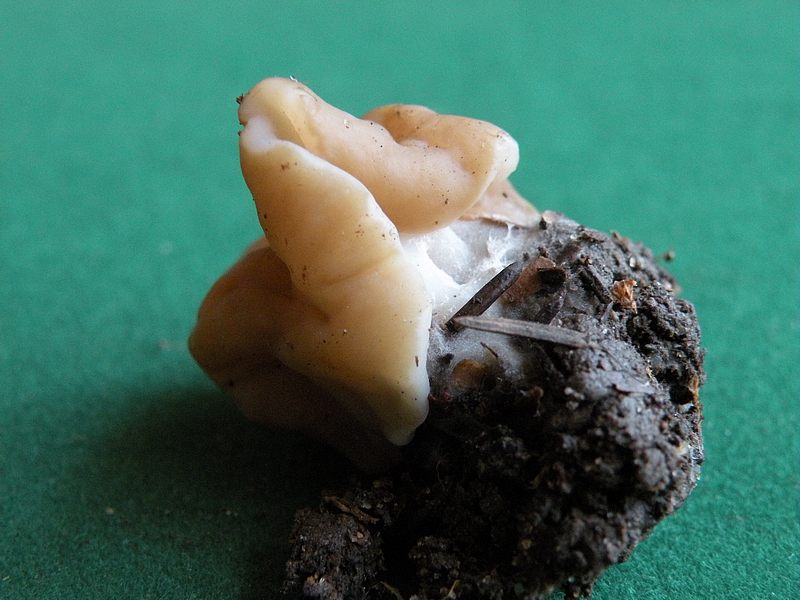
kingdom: Fungi
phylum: Ascomycota
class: Pezizomycetes
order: Pezizales
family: Discinaceae
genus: Gyromitra
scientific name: Gyromitra gigas
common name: kæmpe-stenmorkel
